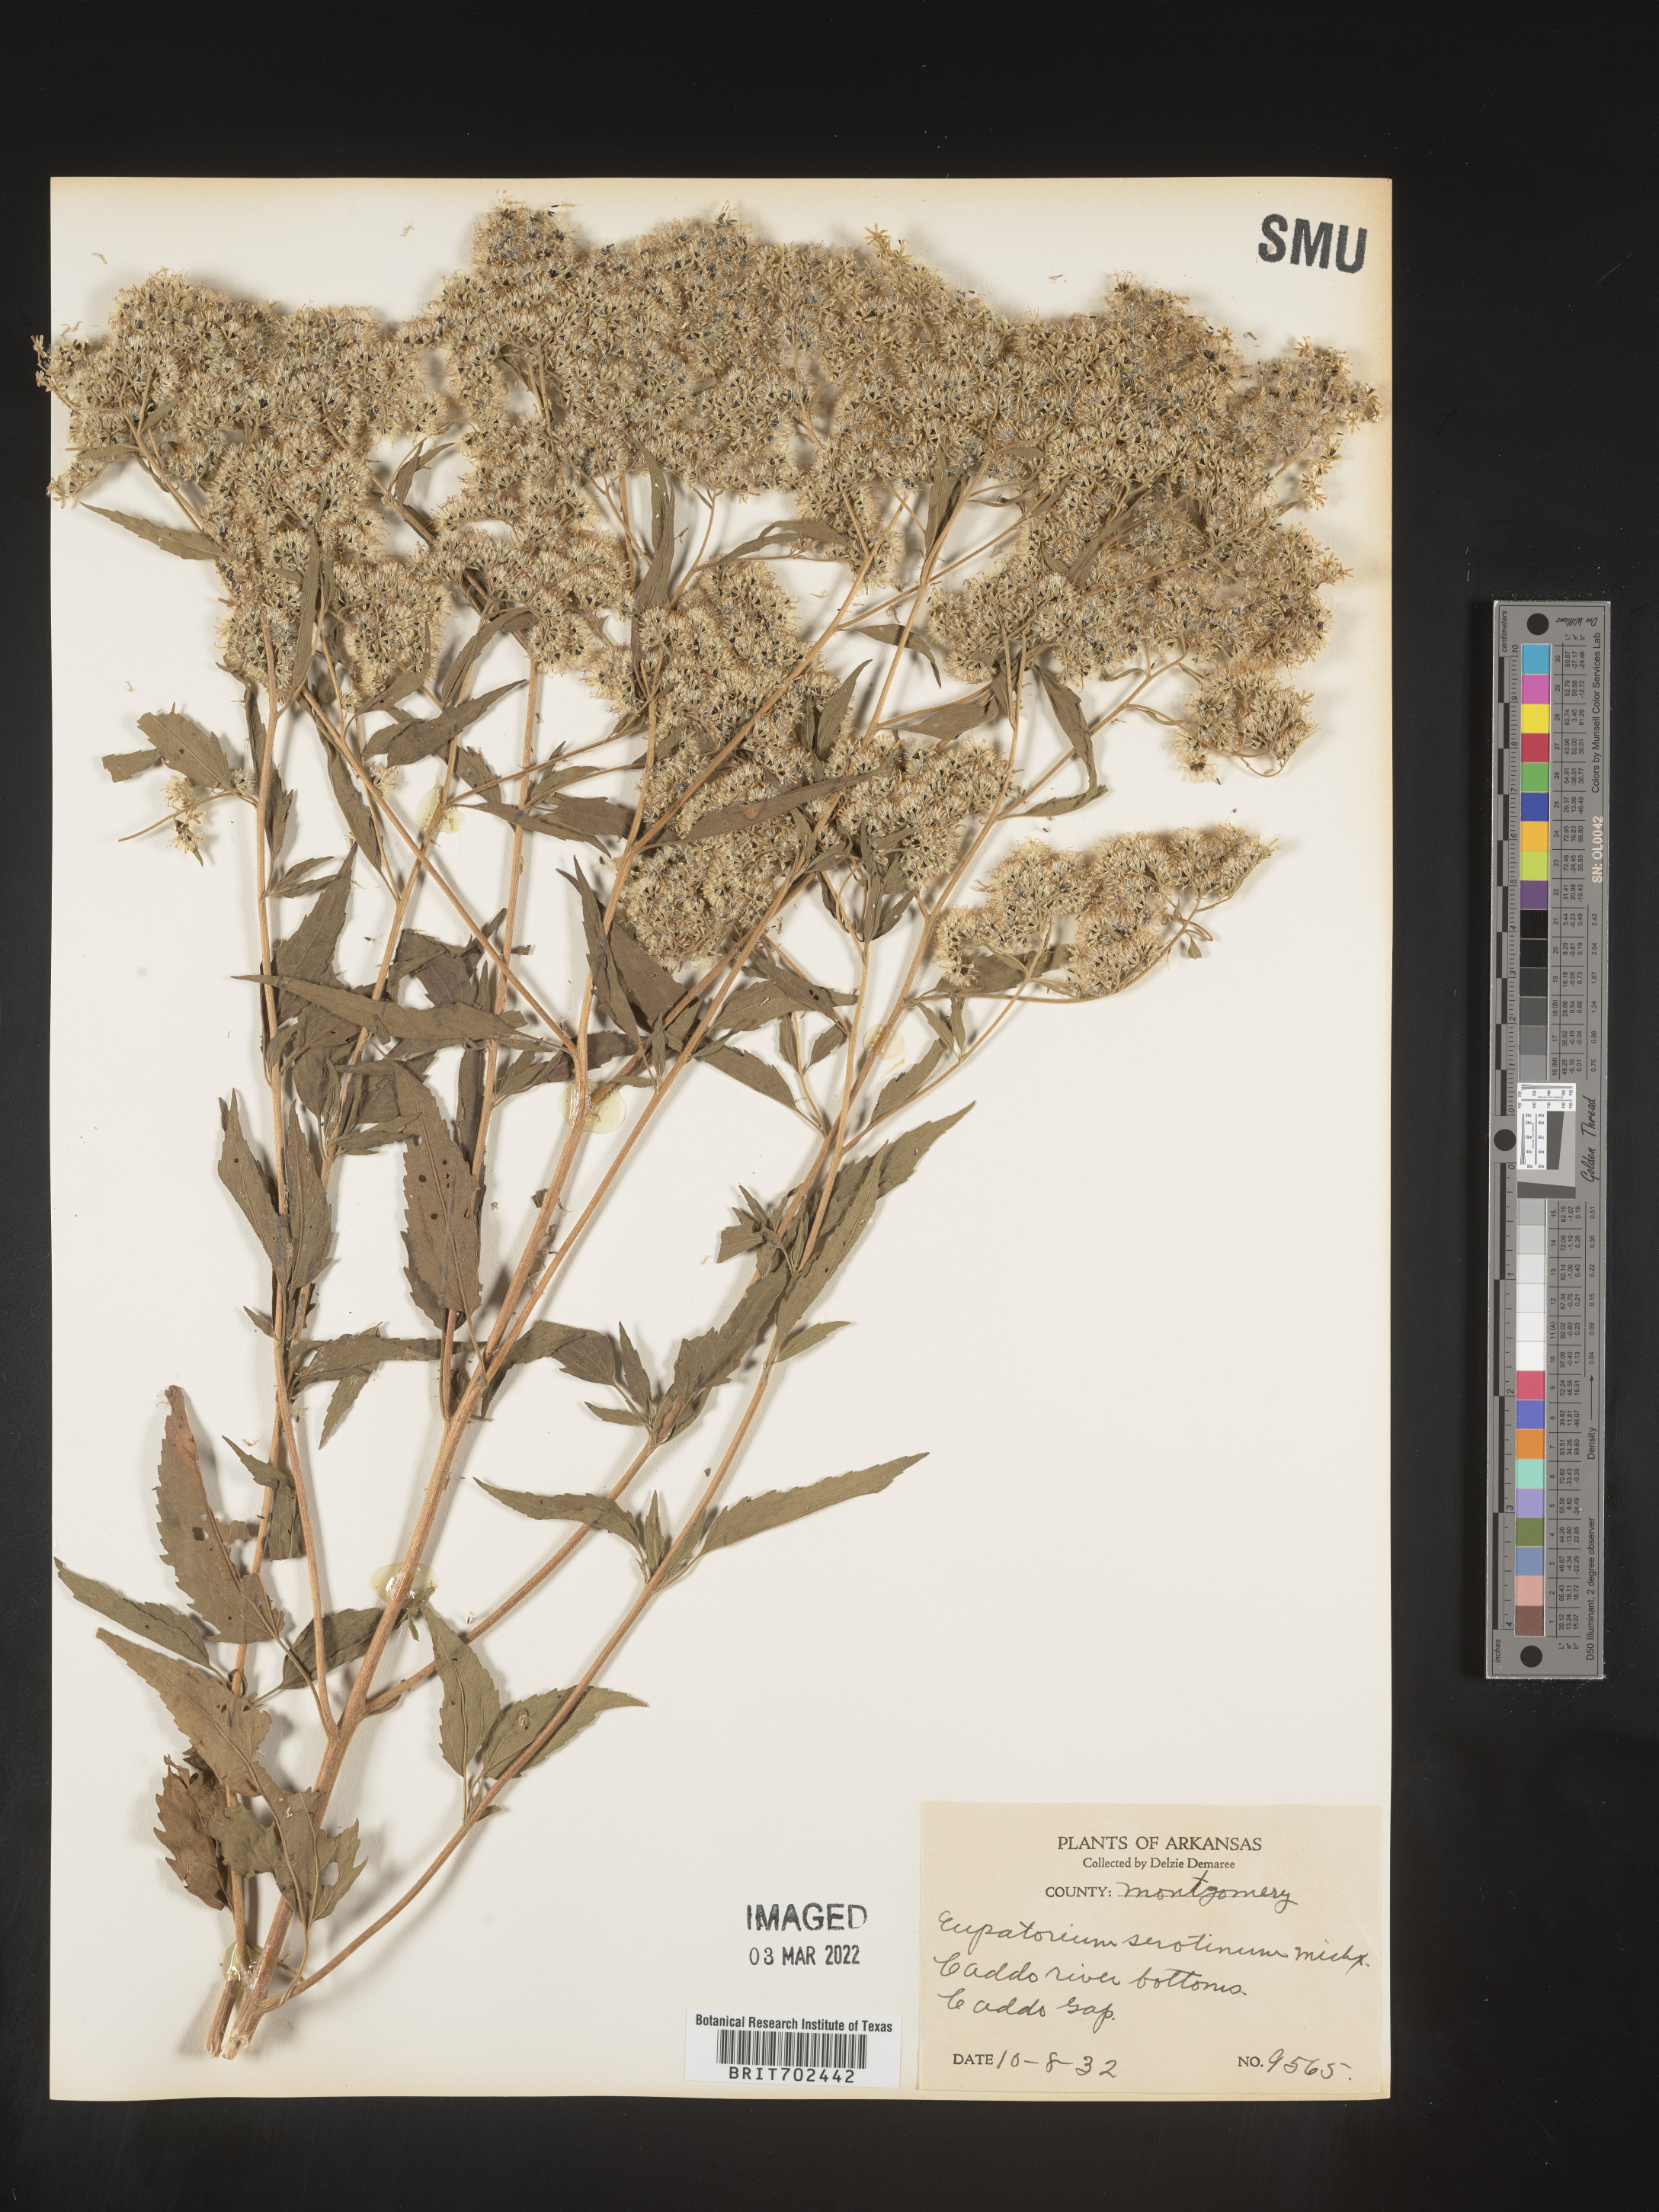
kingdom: Plantae
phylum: Tracheophyta
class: Magnoliopsida
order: Asterales
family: Asteraceae
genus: Eupatorium
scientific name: Eupatorium serotinum
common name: Late boneset
